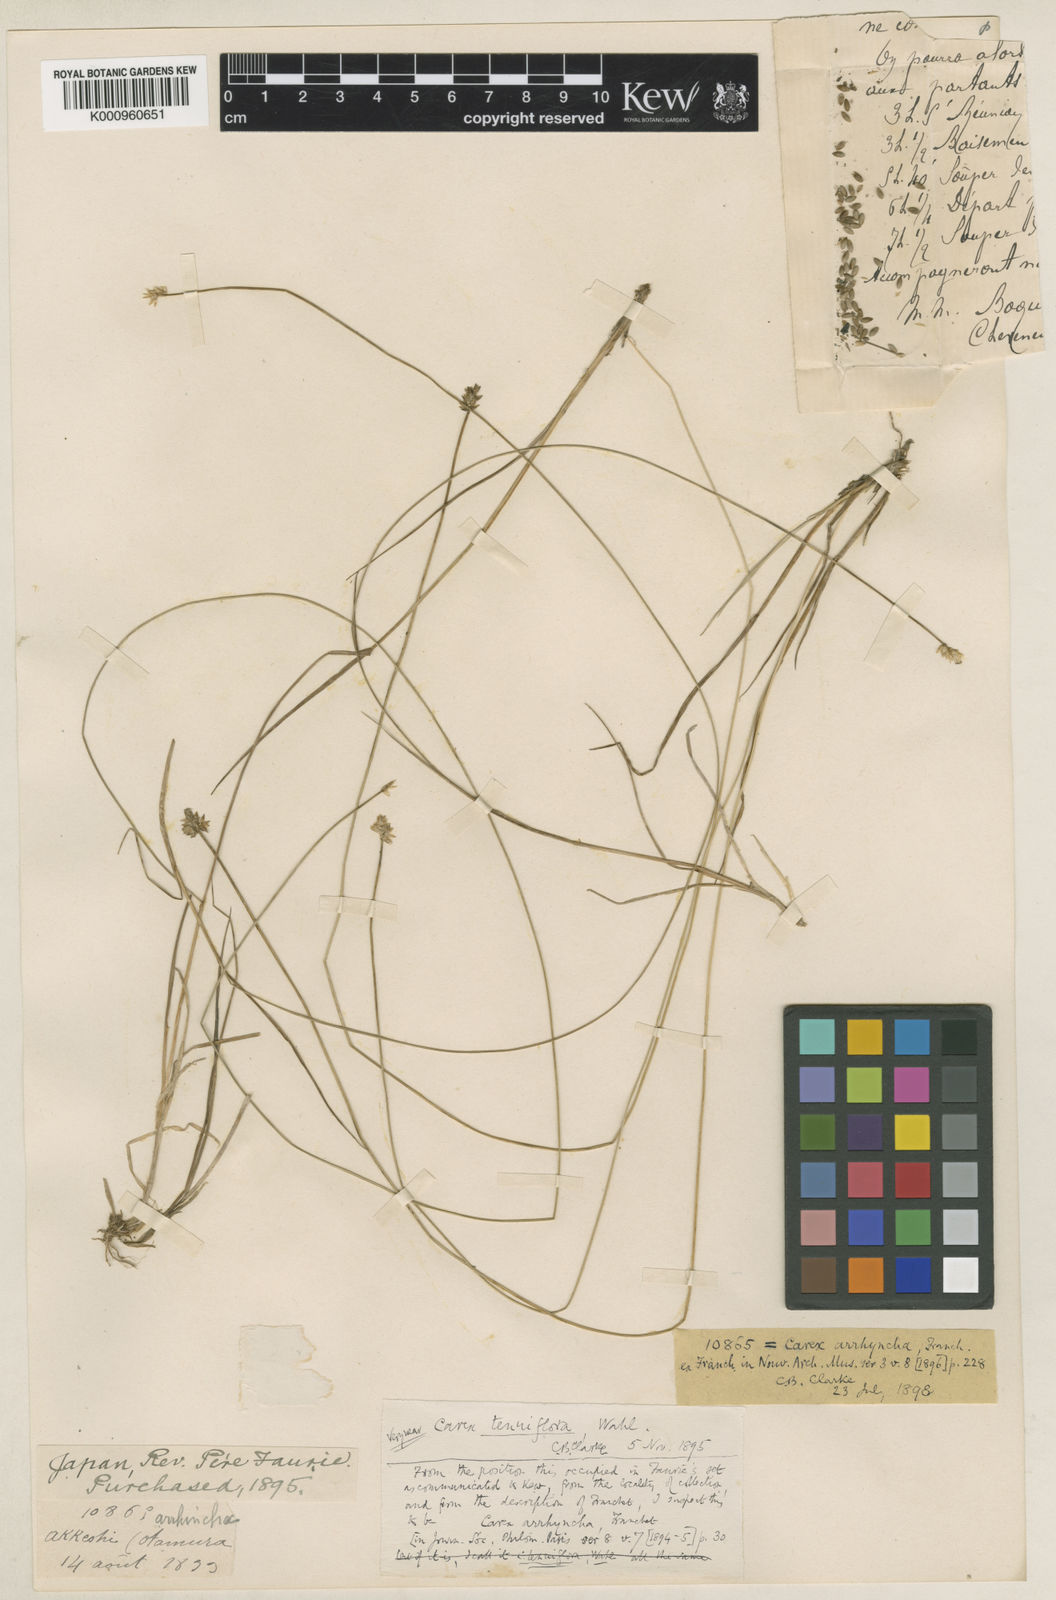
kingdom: Plantae
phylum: Tracheophyta
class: Liliopsida
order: Poales
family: Cyperaceae
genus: Carex
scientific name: Carex tenuiflora
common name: Sparse-flowered sedge
